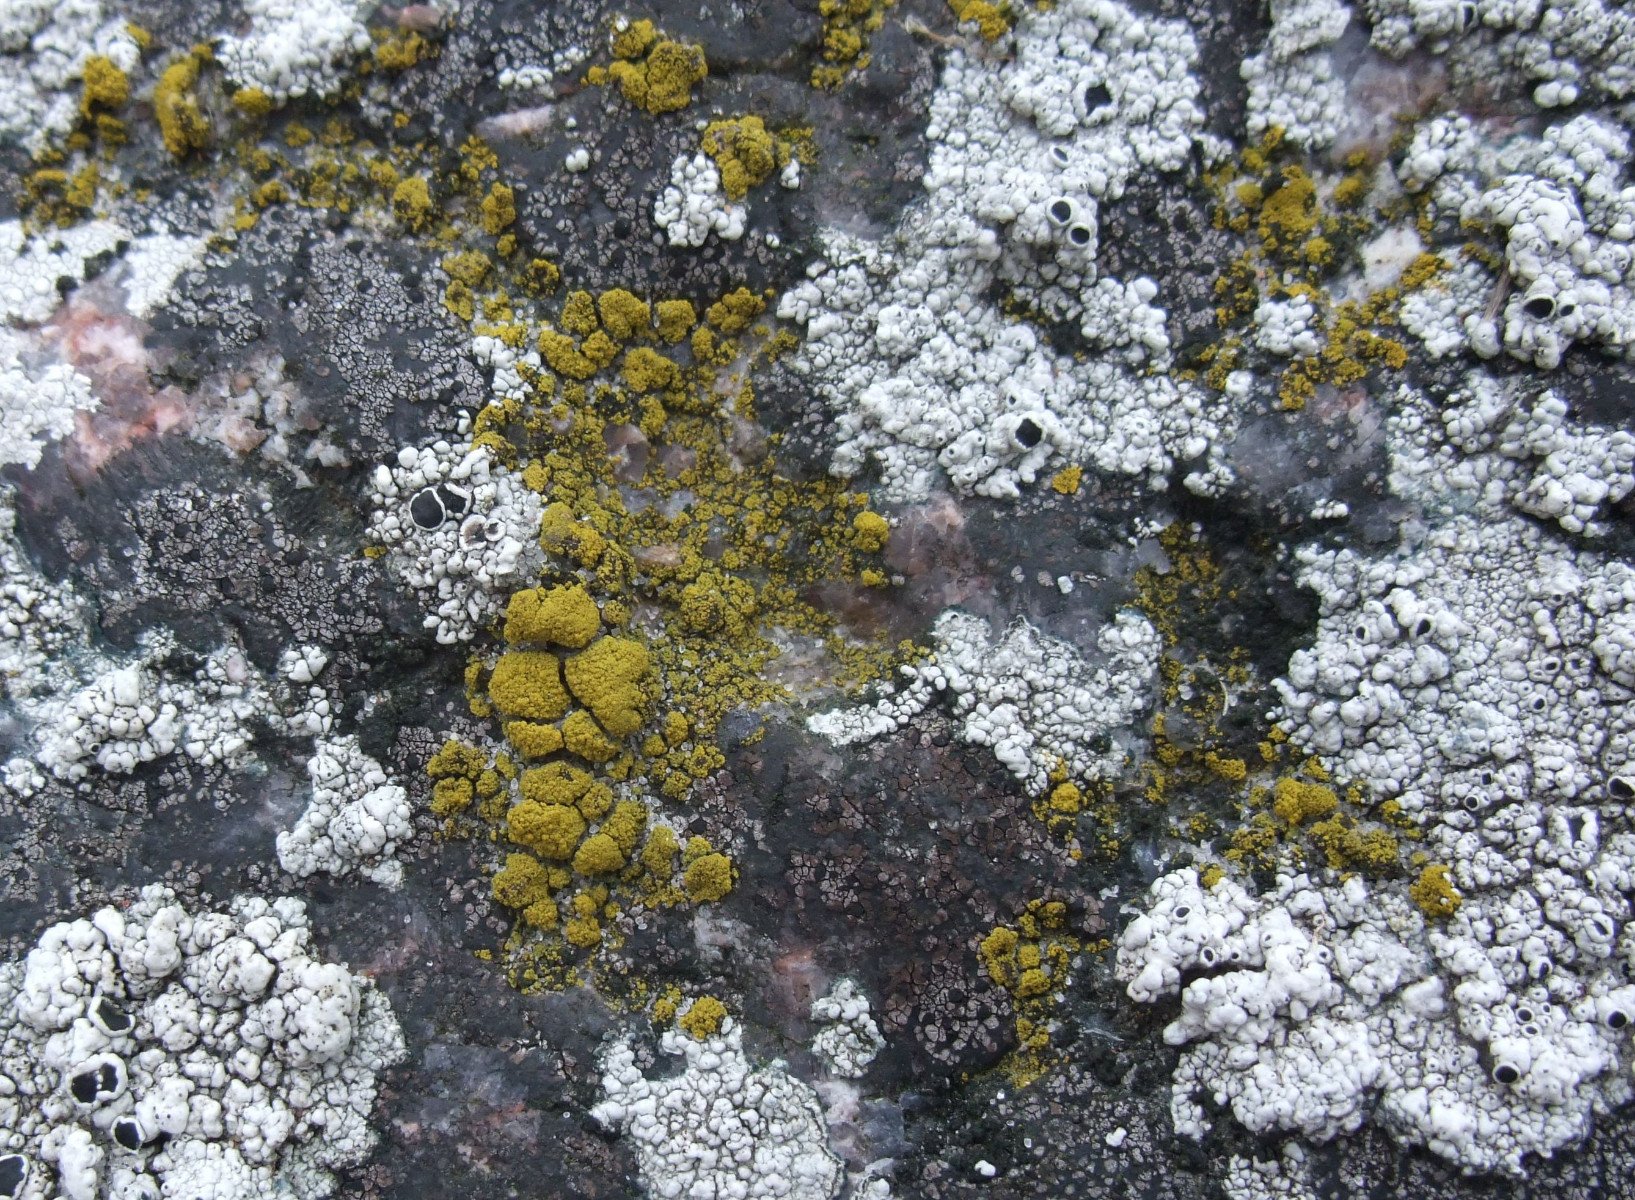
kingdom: Fungi
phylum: Ascomycota
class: Candelariomycetes
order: Candelariales
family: Candelariaceae
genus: Candelariella
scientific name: Candelariella vitellina
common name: almindelig æggeblommelav
